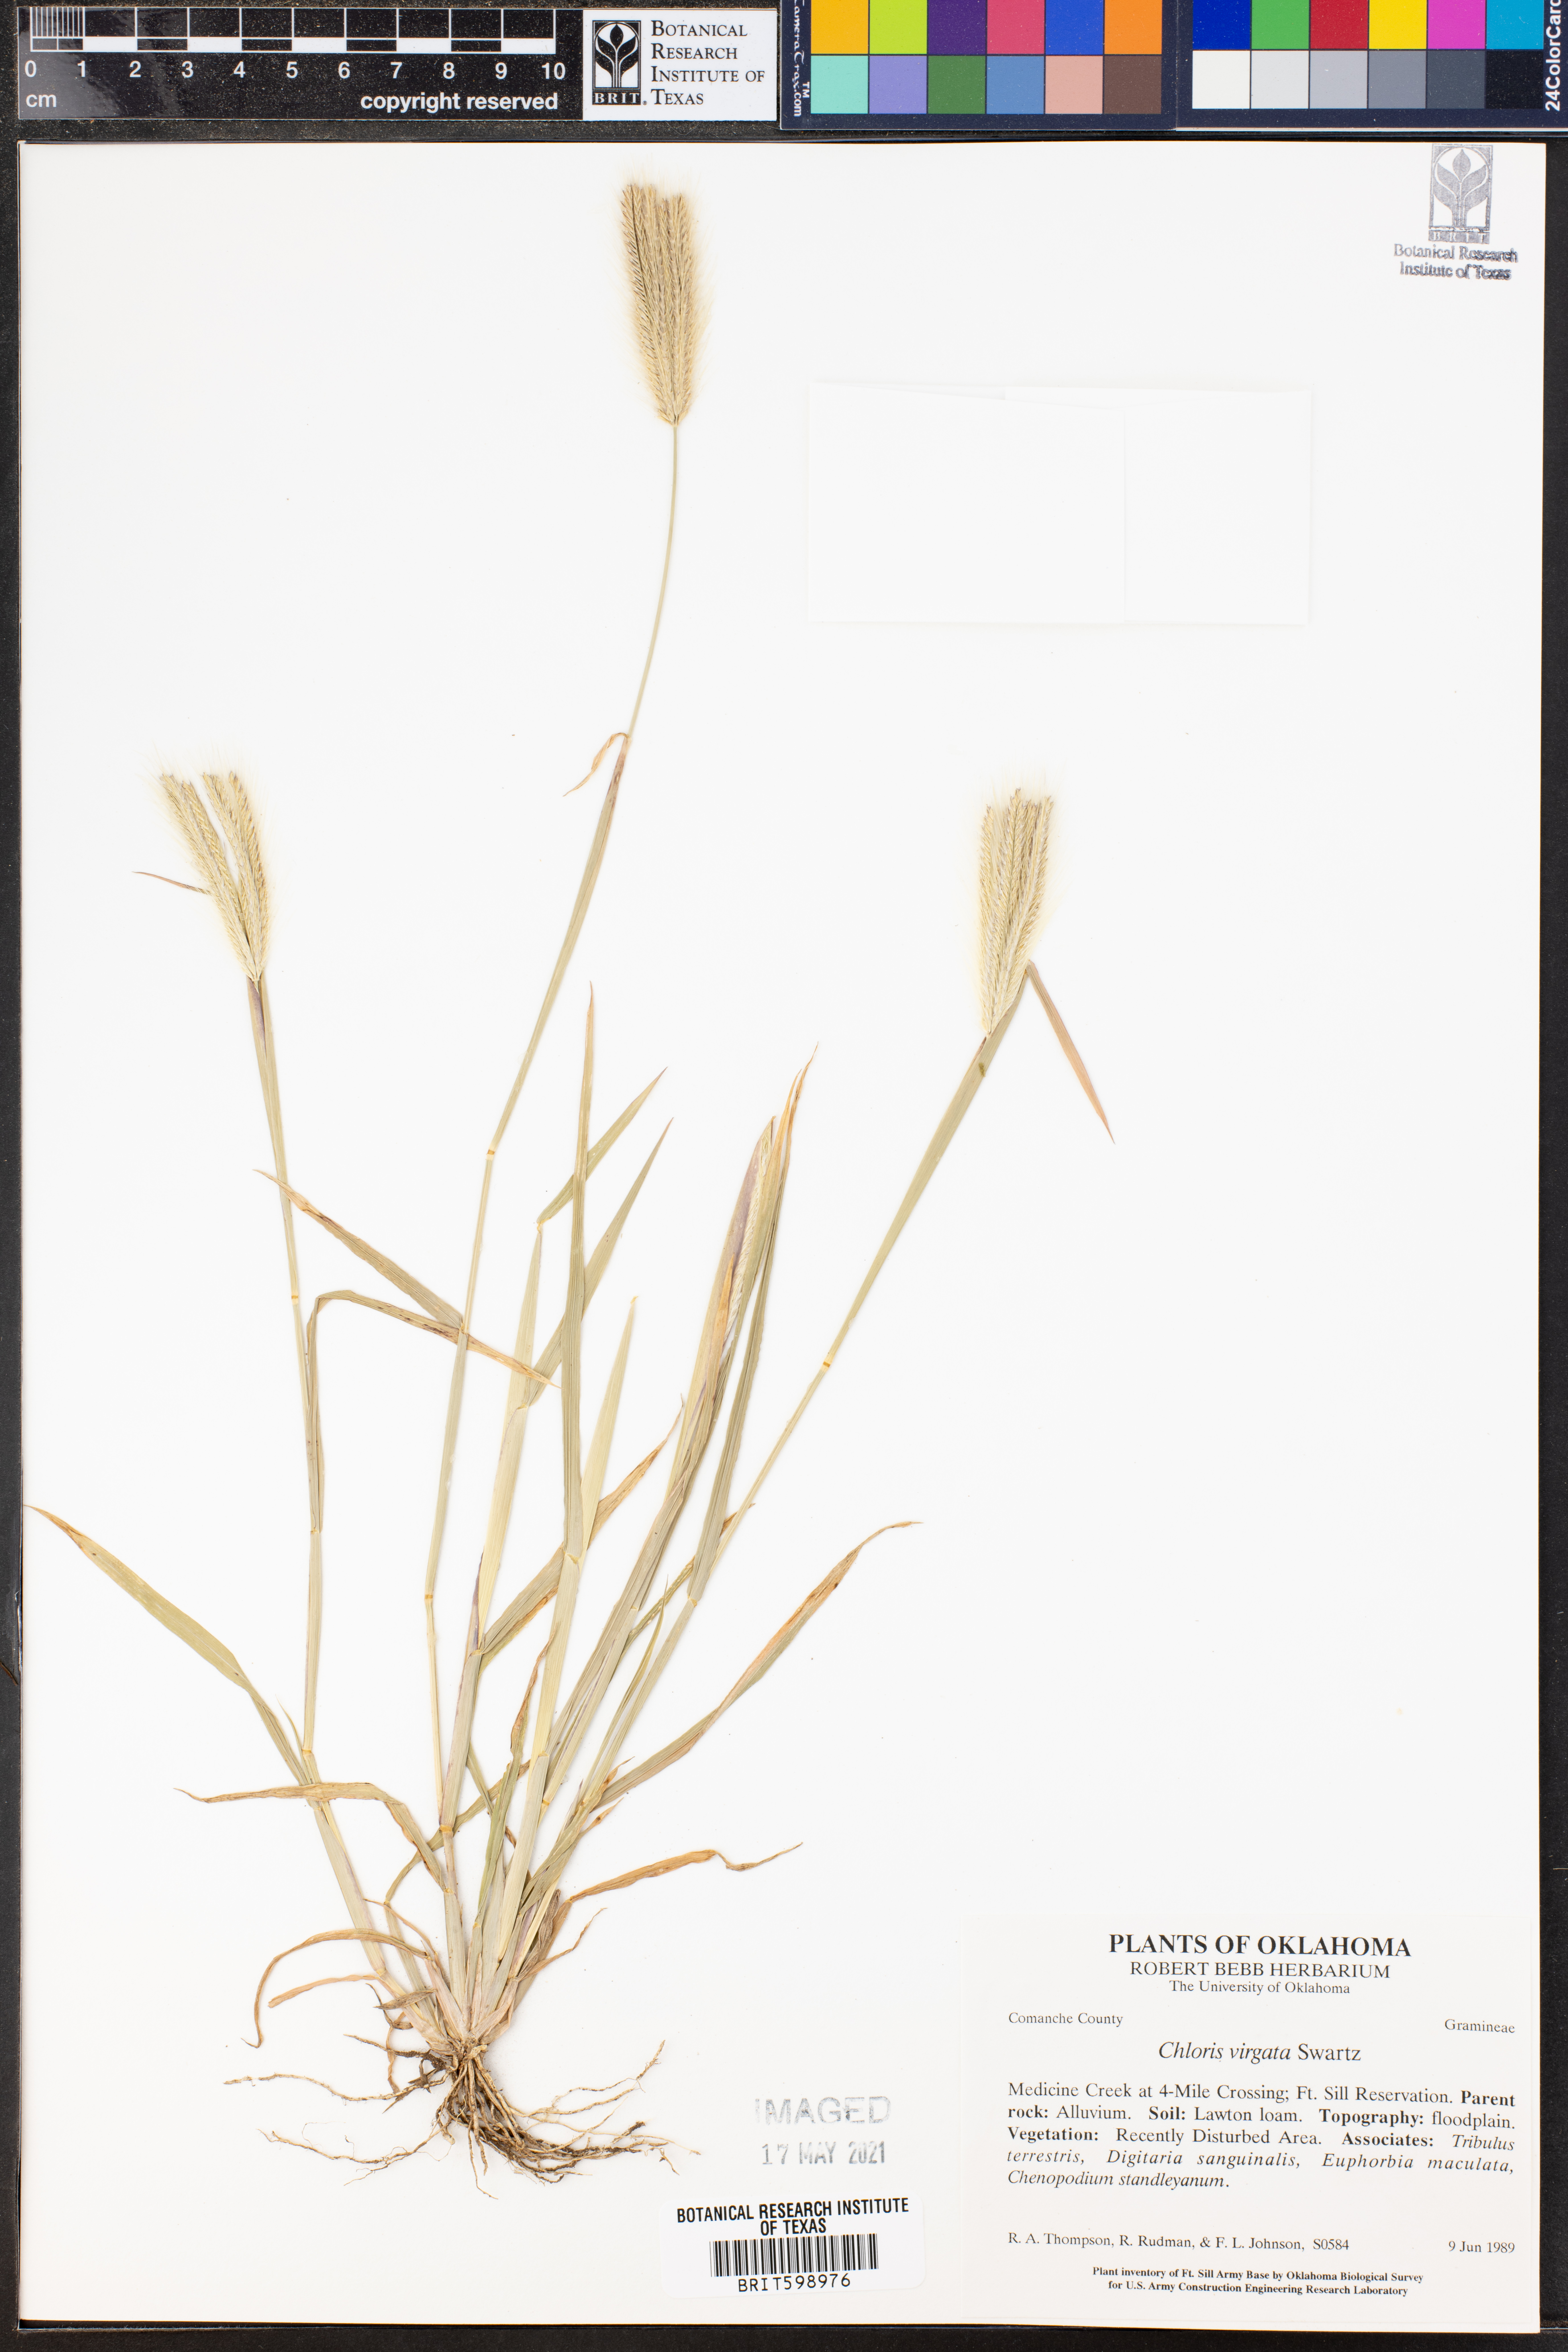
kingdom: Plantae
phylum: Tracheophyta
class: Liliopsida
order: Poales
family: Poaceae
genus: Chloris
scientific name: Chloris virgata
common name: Feathery rhodes-grass
